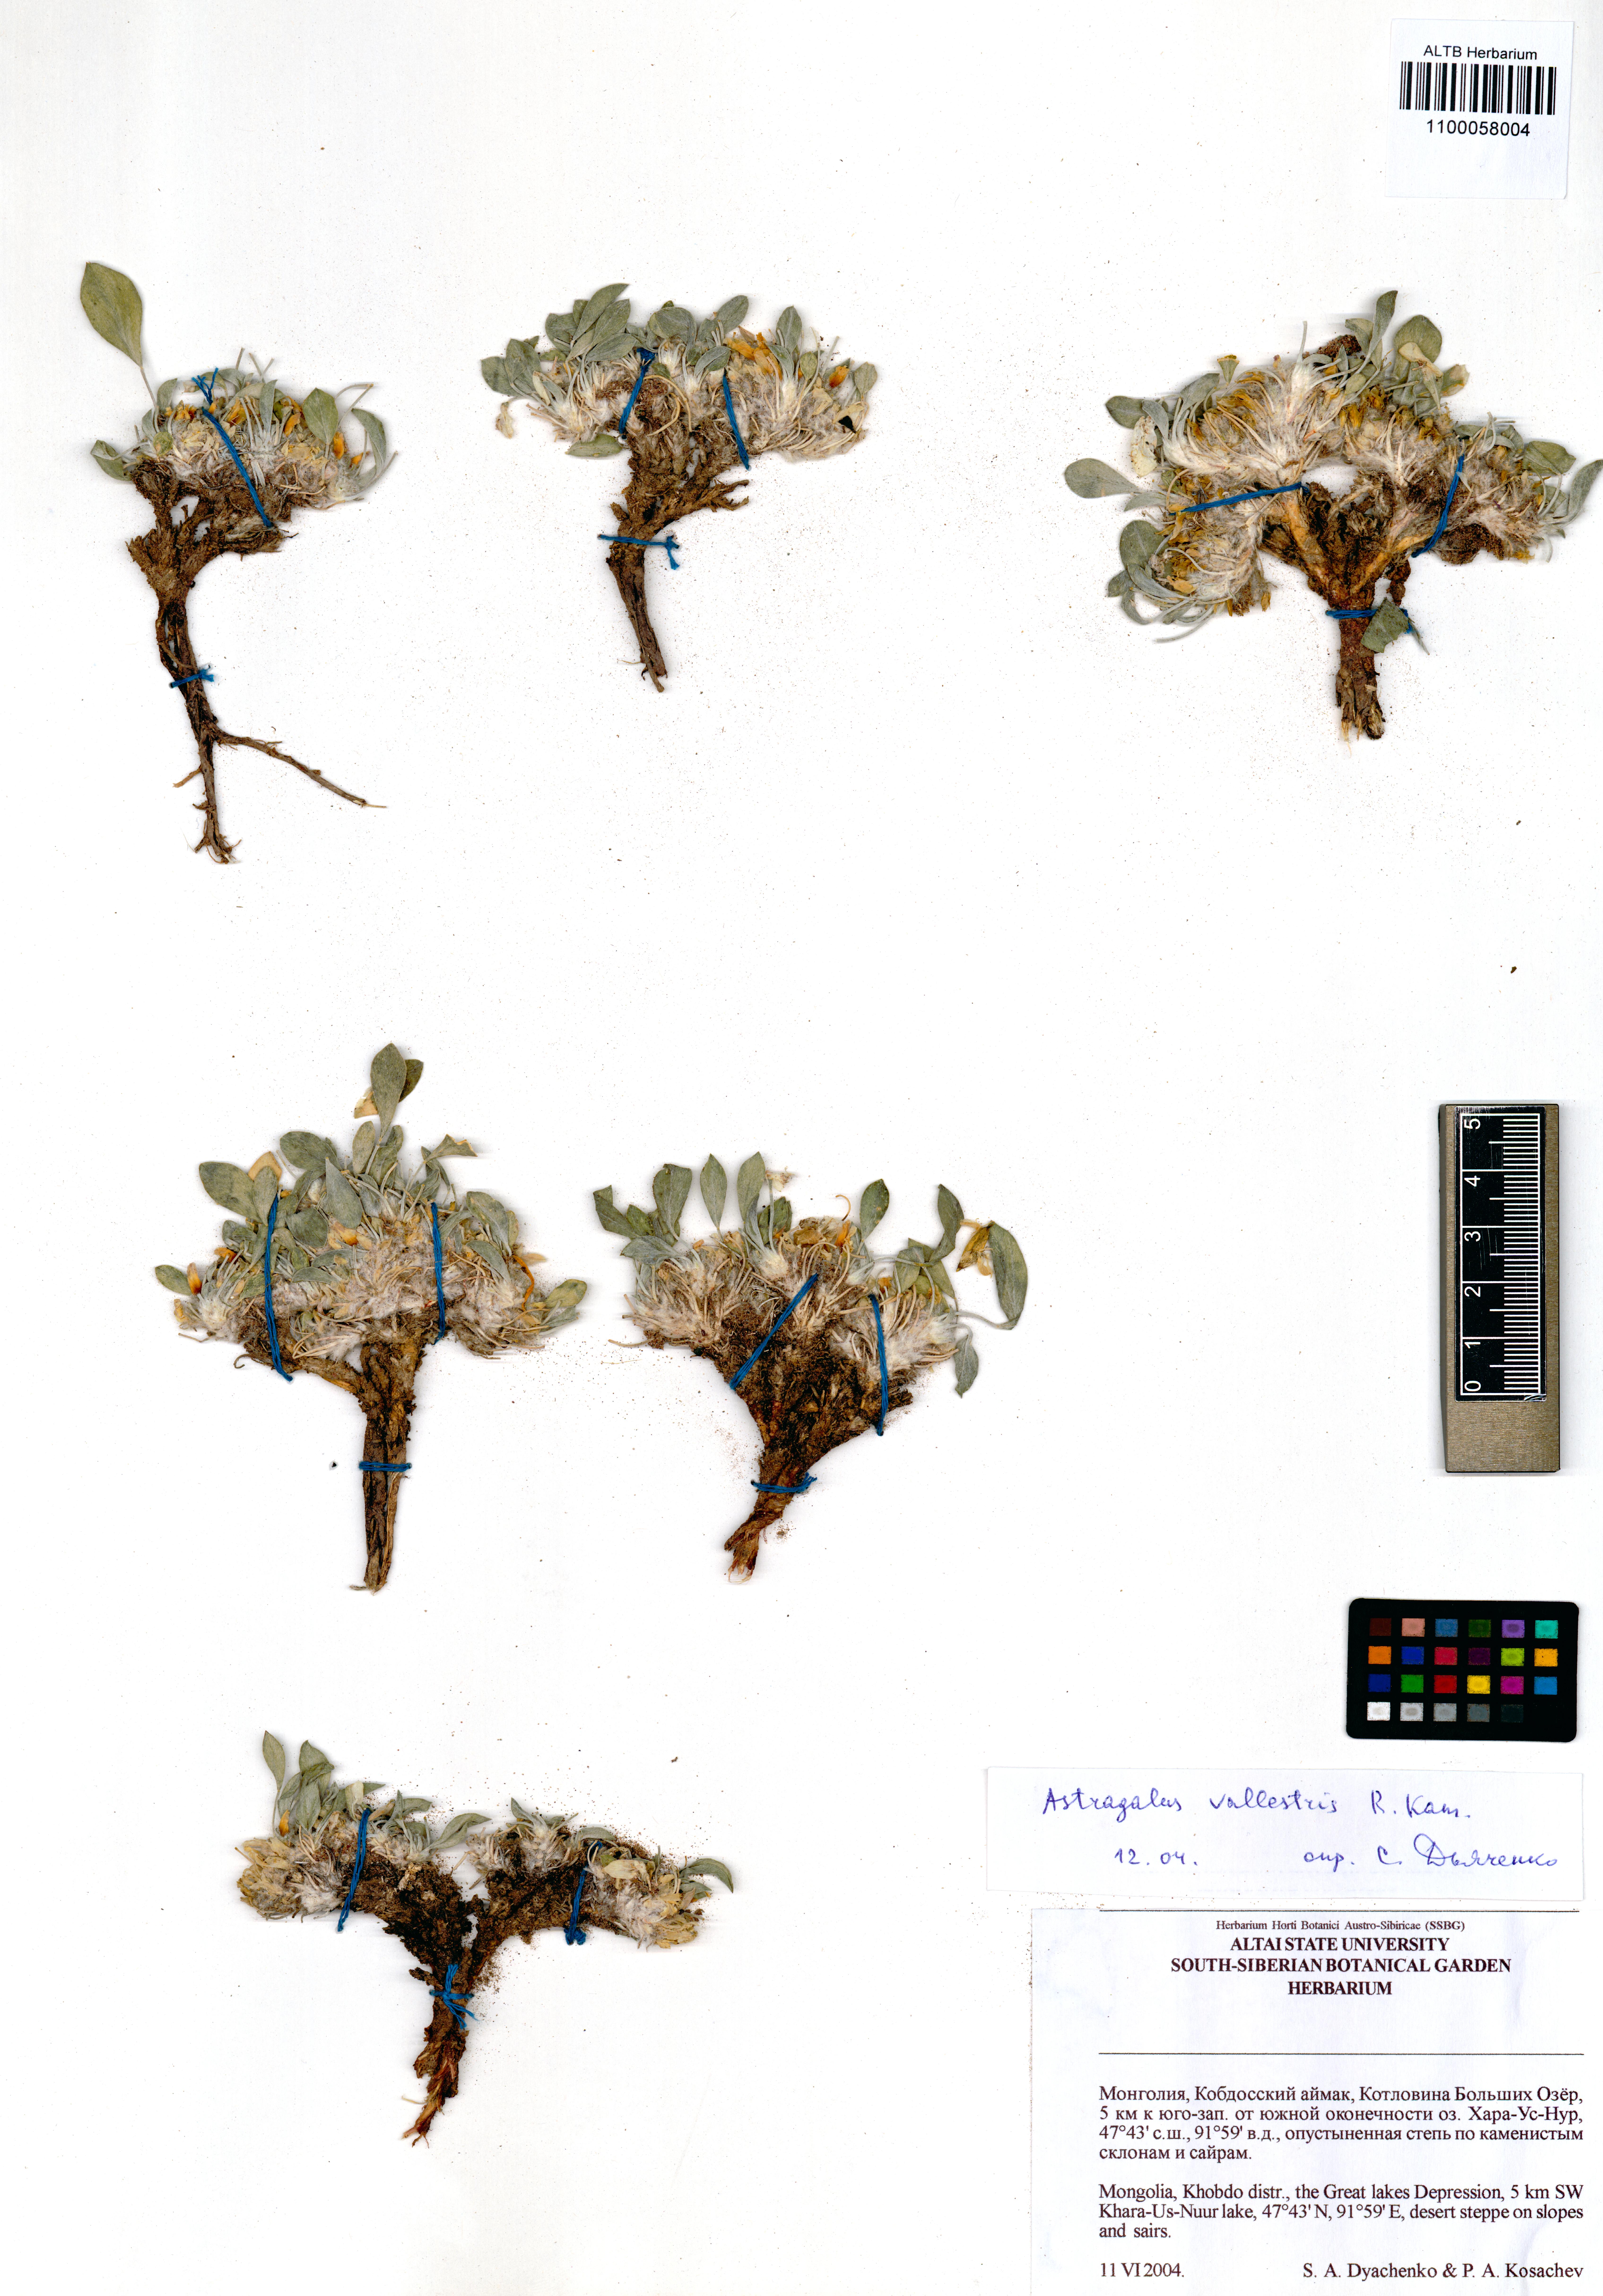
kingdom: Plantae
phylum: Tracheophyta
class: Magnoliopsida
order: Fabales
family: Fabaceae
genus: Astragalus
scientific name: Astragalus vaginatus
